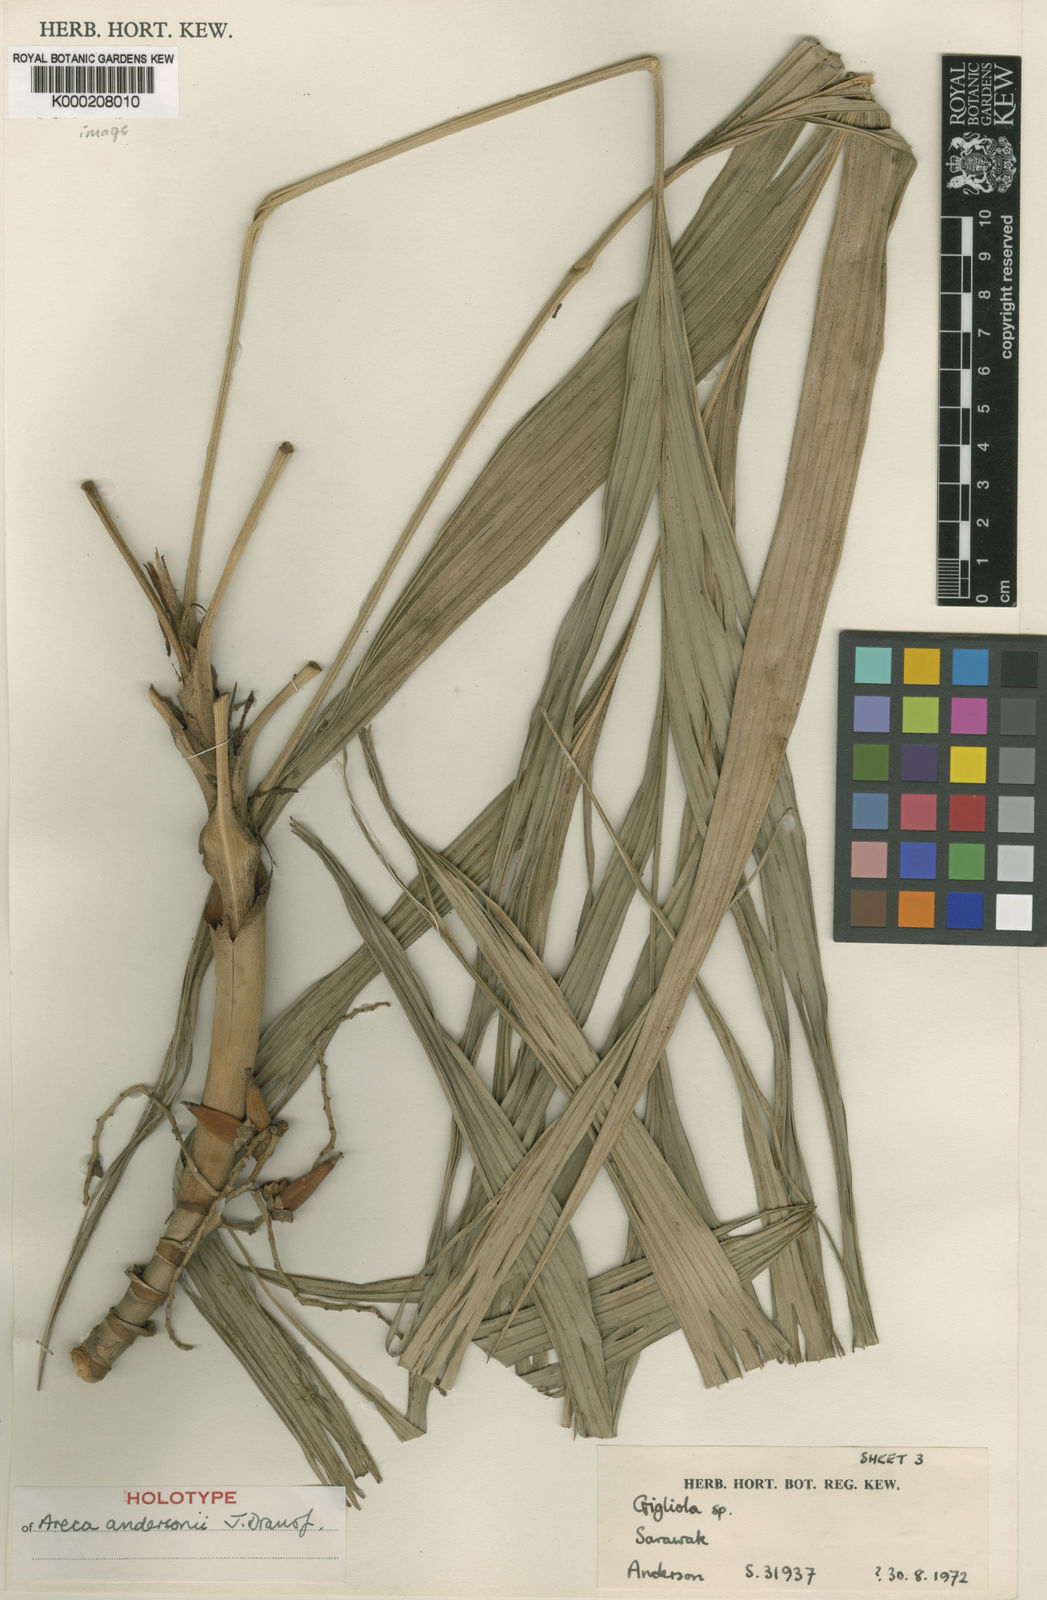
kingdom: Plantae
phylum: Tracheophyta
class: Liliopsida
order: Arecales
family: Arecaceae
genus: Areca
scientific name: Areca andersonii
